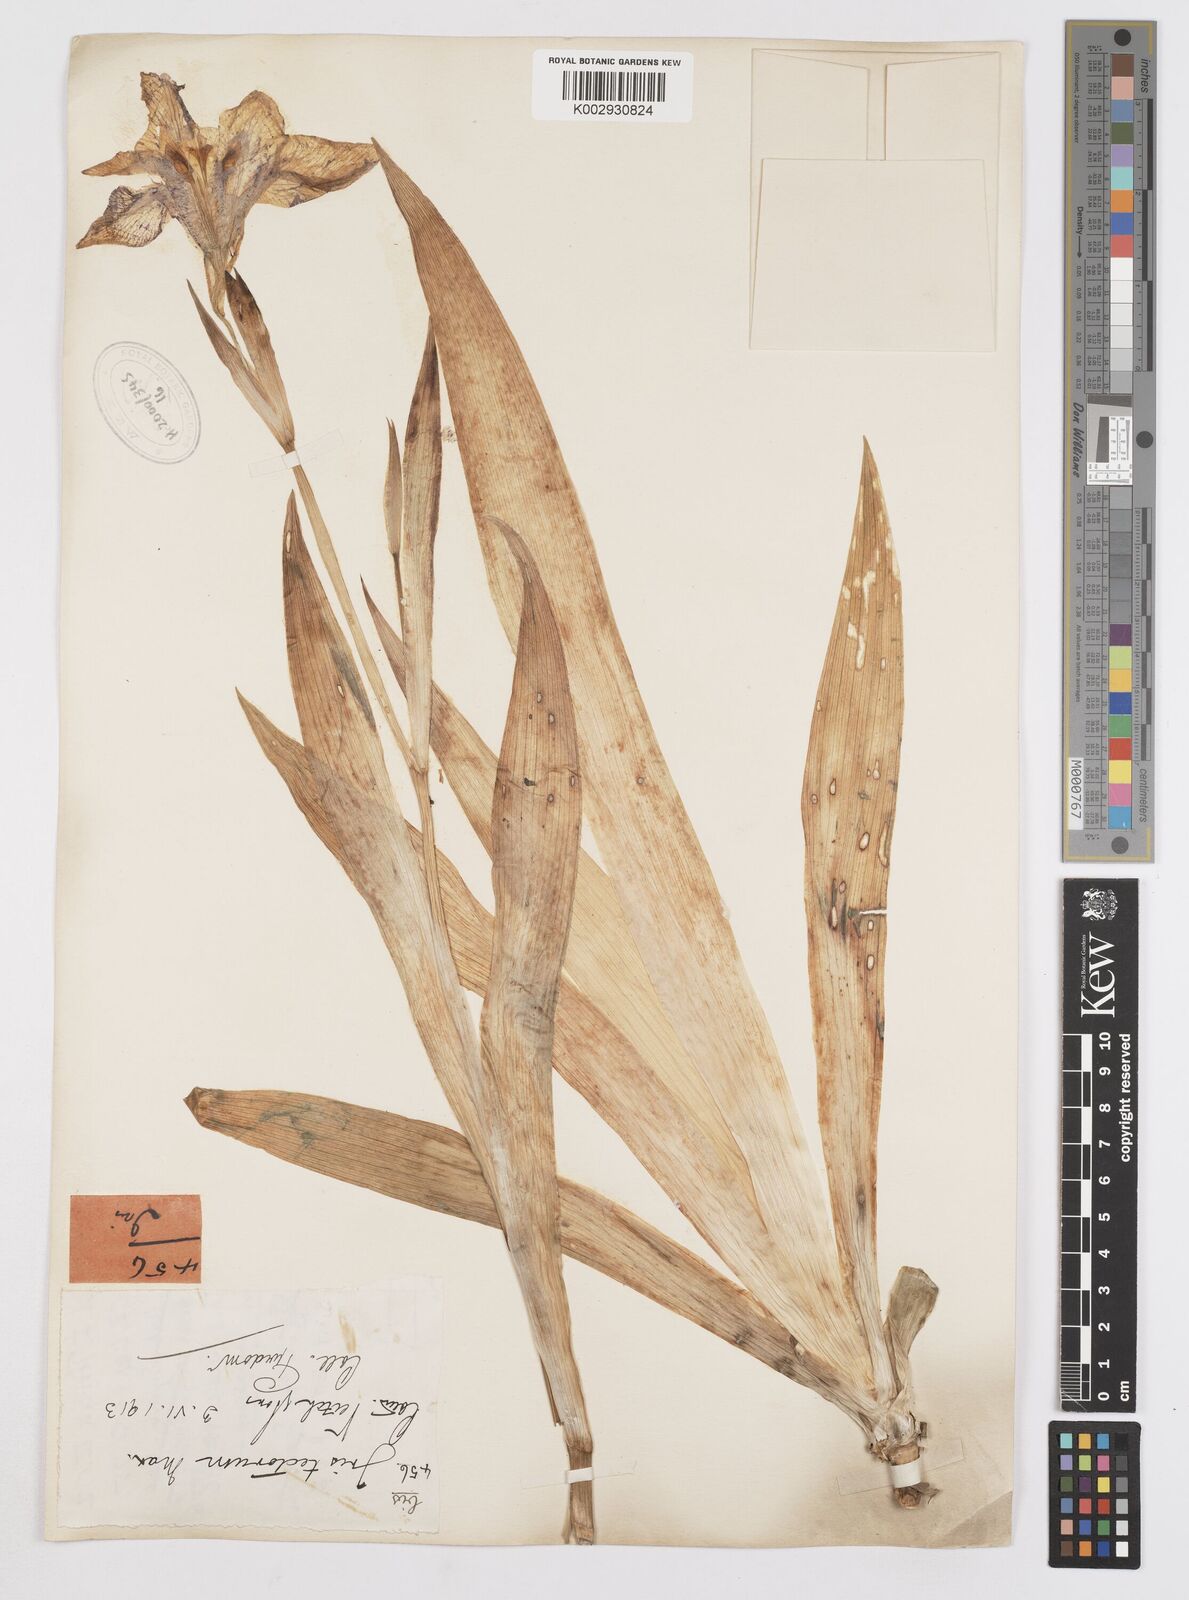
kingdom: Plantae
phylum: Tracheophyta
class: Liliopsida
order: Asparagales
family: Iridaceae
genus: Iris
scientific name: Iris tectorum
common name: Wall iris
